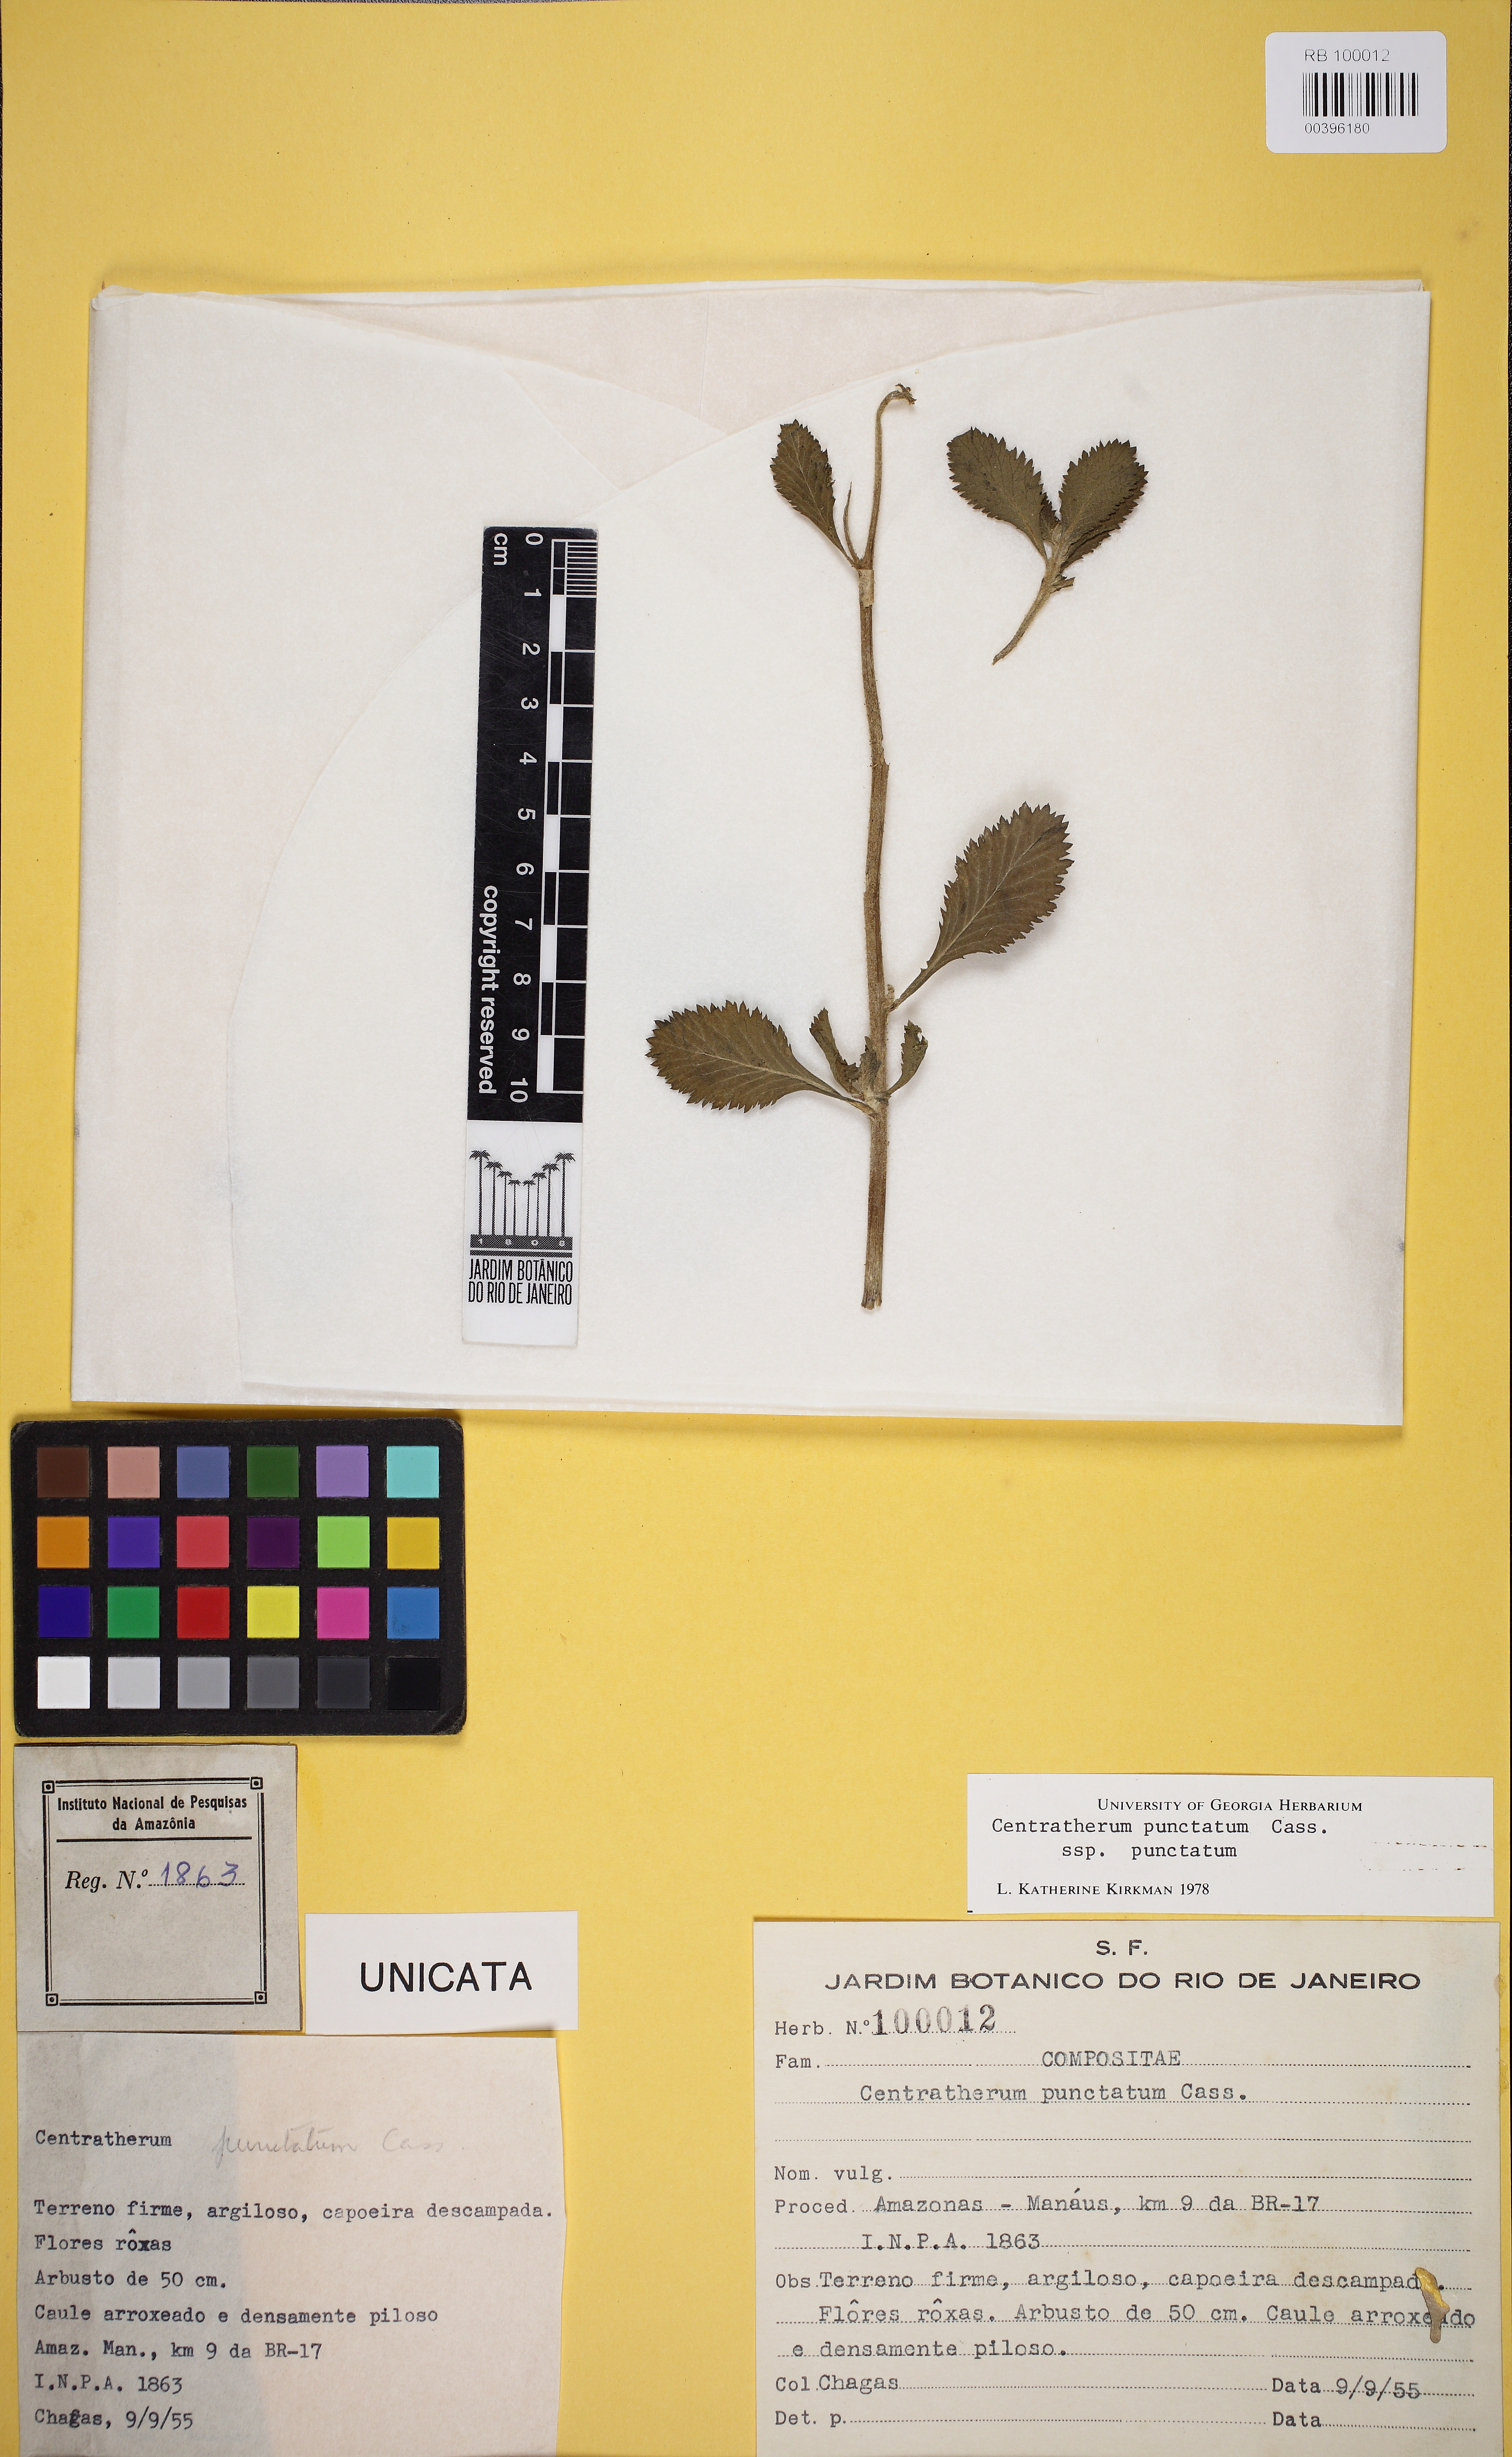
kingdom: Plantae
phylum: Tracheophyta
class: Magnoliopsida
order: Asterales
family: Asteraceae
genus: Centratherum
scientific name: Centratherum punctatum
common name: Larkdaisy
